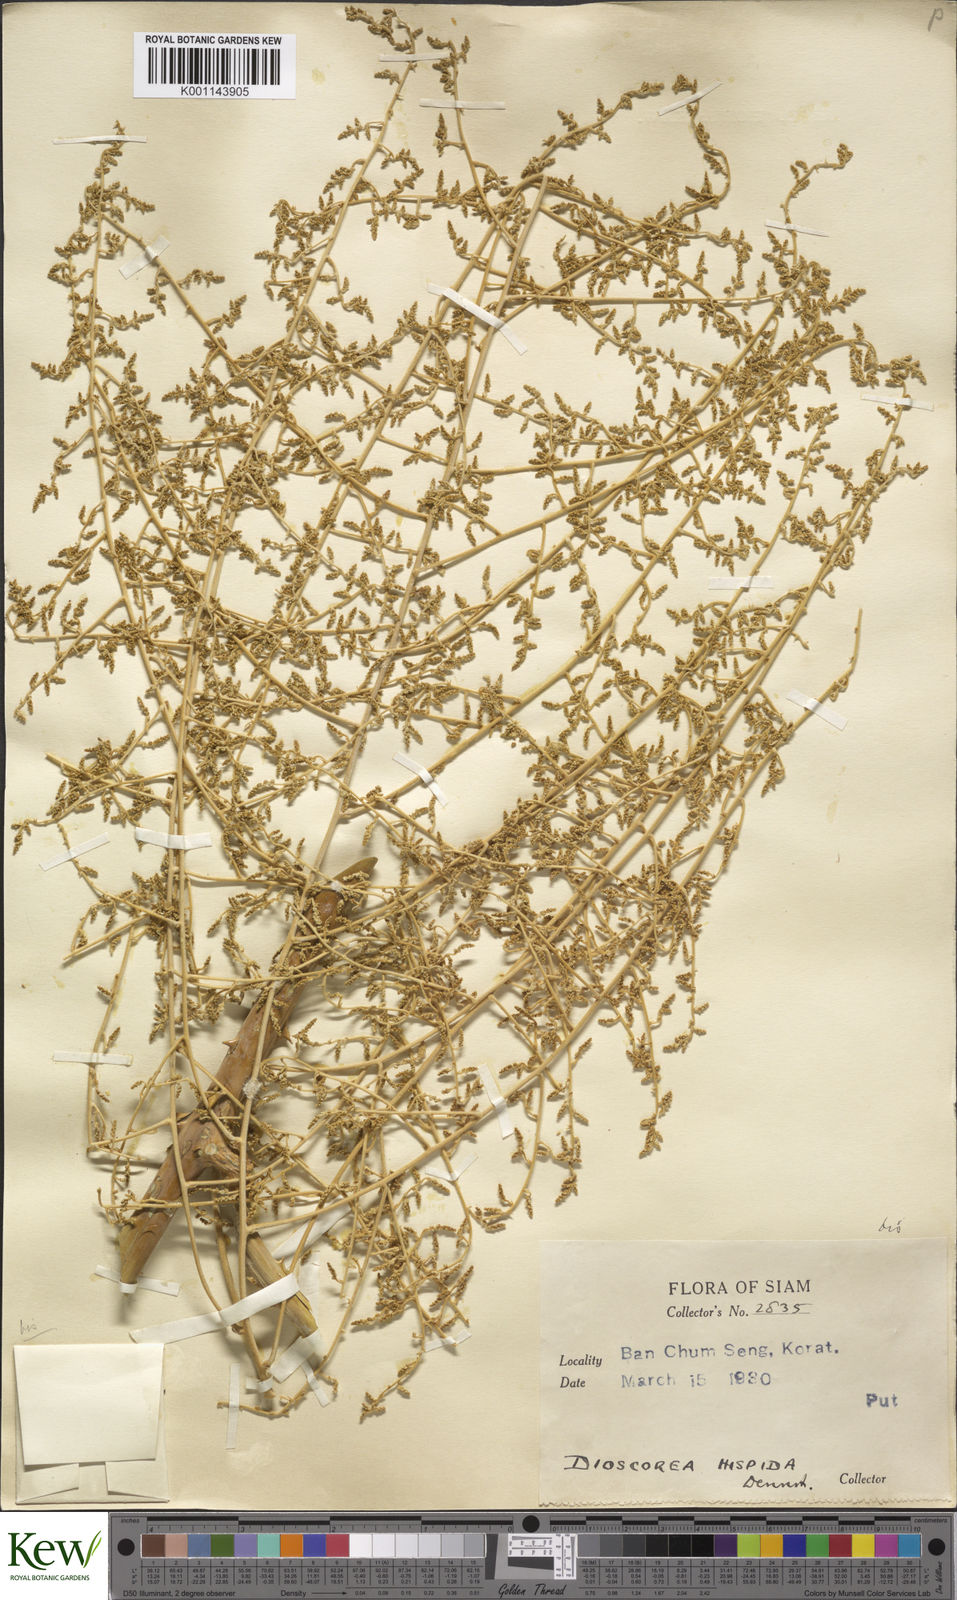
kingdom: Plantae
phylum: Tracheophyta
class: Liliopsida
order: Dioscoreales
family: Dioscoreaceae
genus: Dioscorea
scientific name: Dioscorea hispida
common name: Asiatic bitter yam
